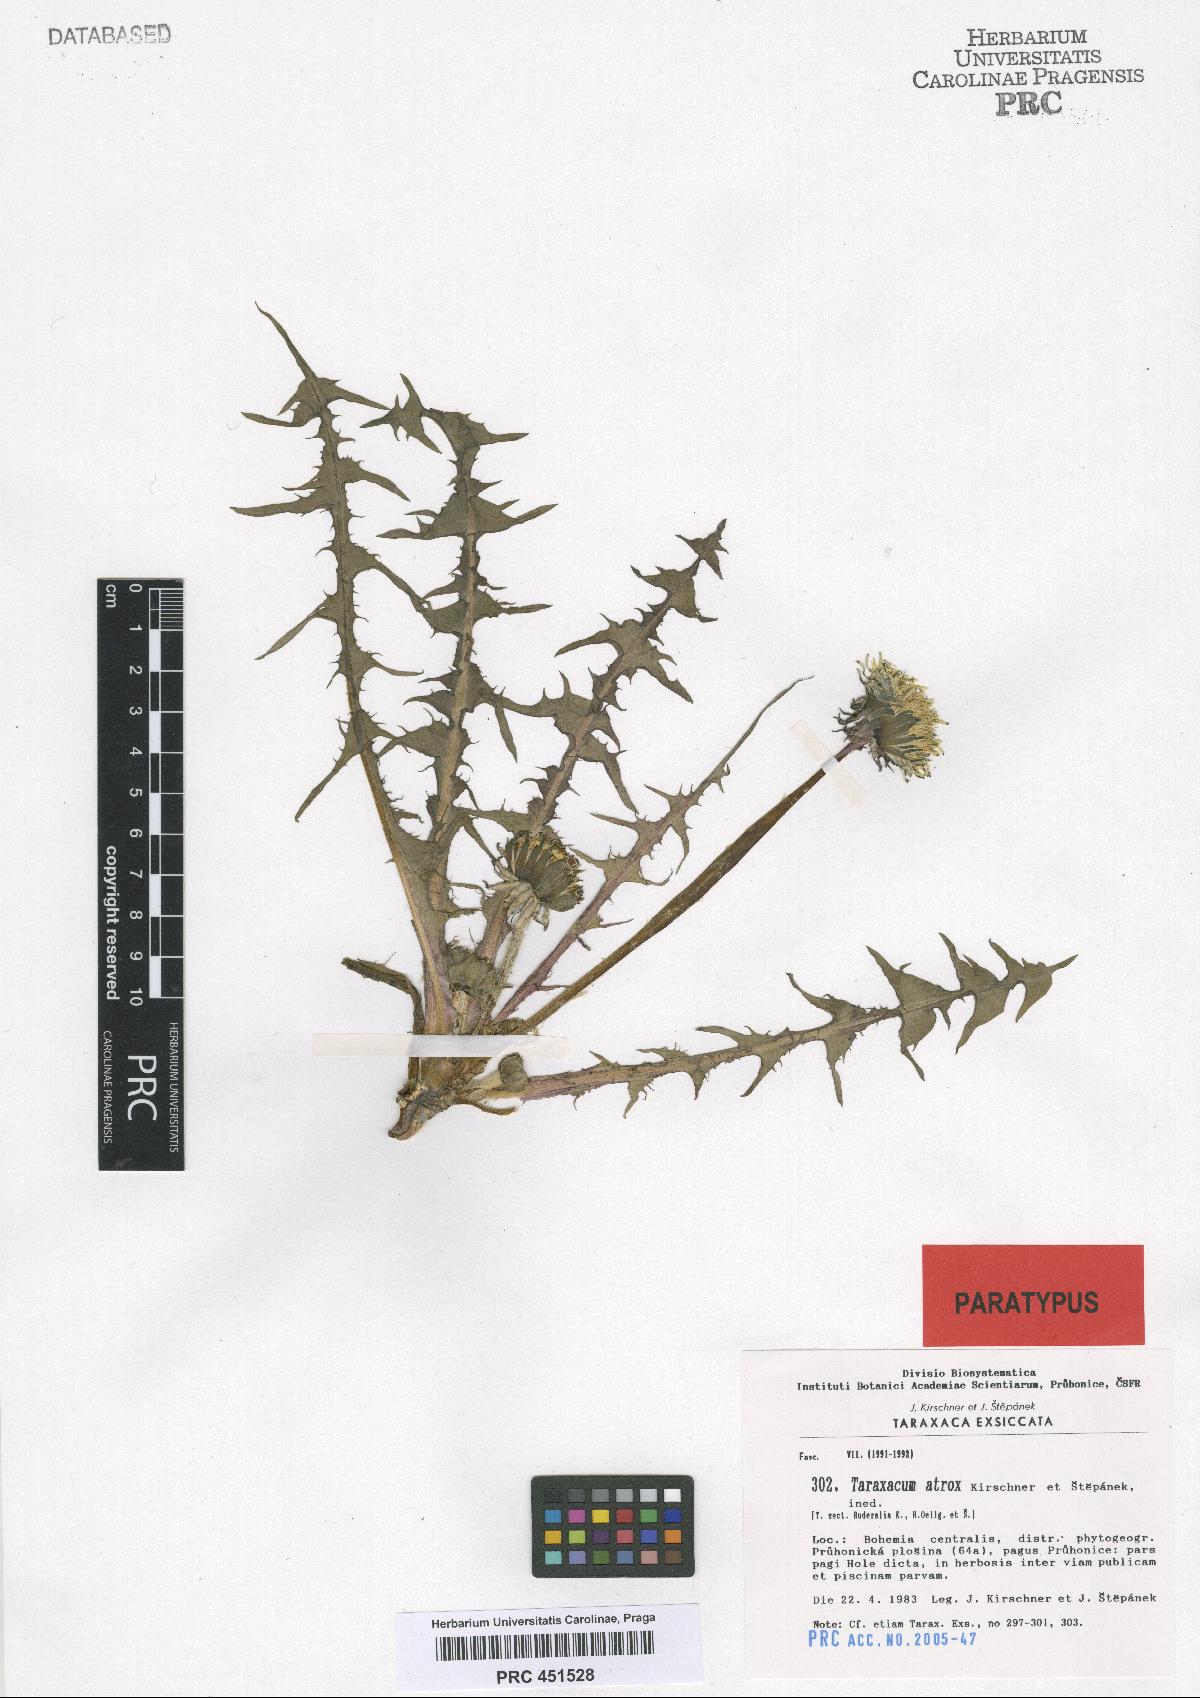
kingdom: Plantae
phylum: Tracheophyta
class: Magnoliopsida
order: Asterales
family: Asteraceae
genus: Taraxacum
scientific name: Taraxacum atrox
